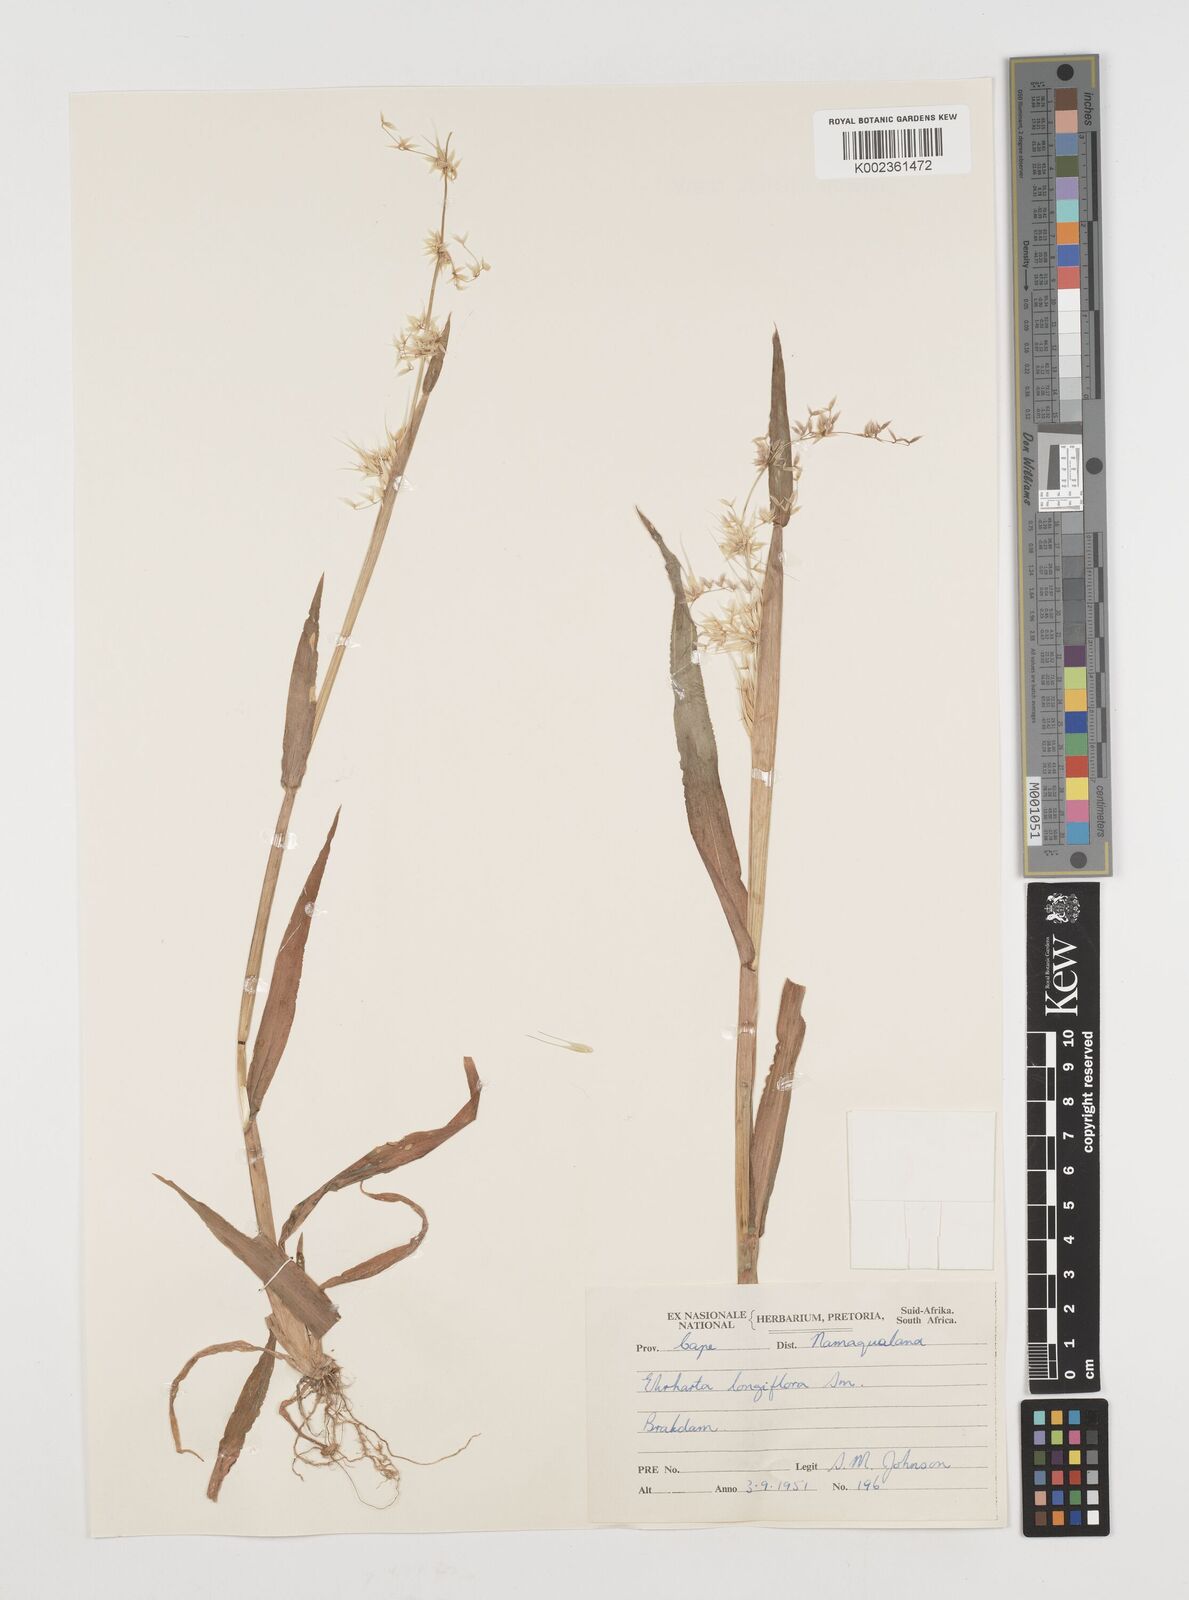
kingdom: Plantae
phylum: Tracheophyta
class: Liliopsida
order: Poales
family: Poaceae
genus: Ehrharta
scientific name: Ehrharta longiflora
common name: Longflowered veldtgrass
